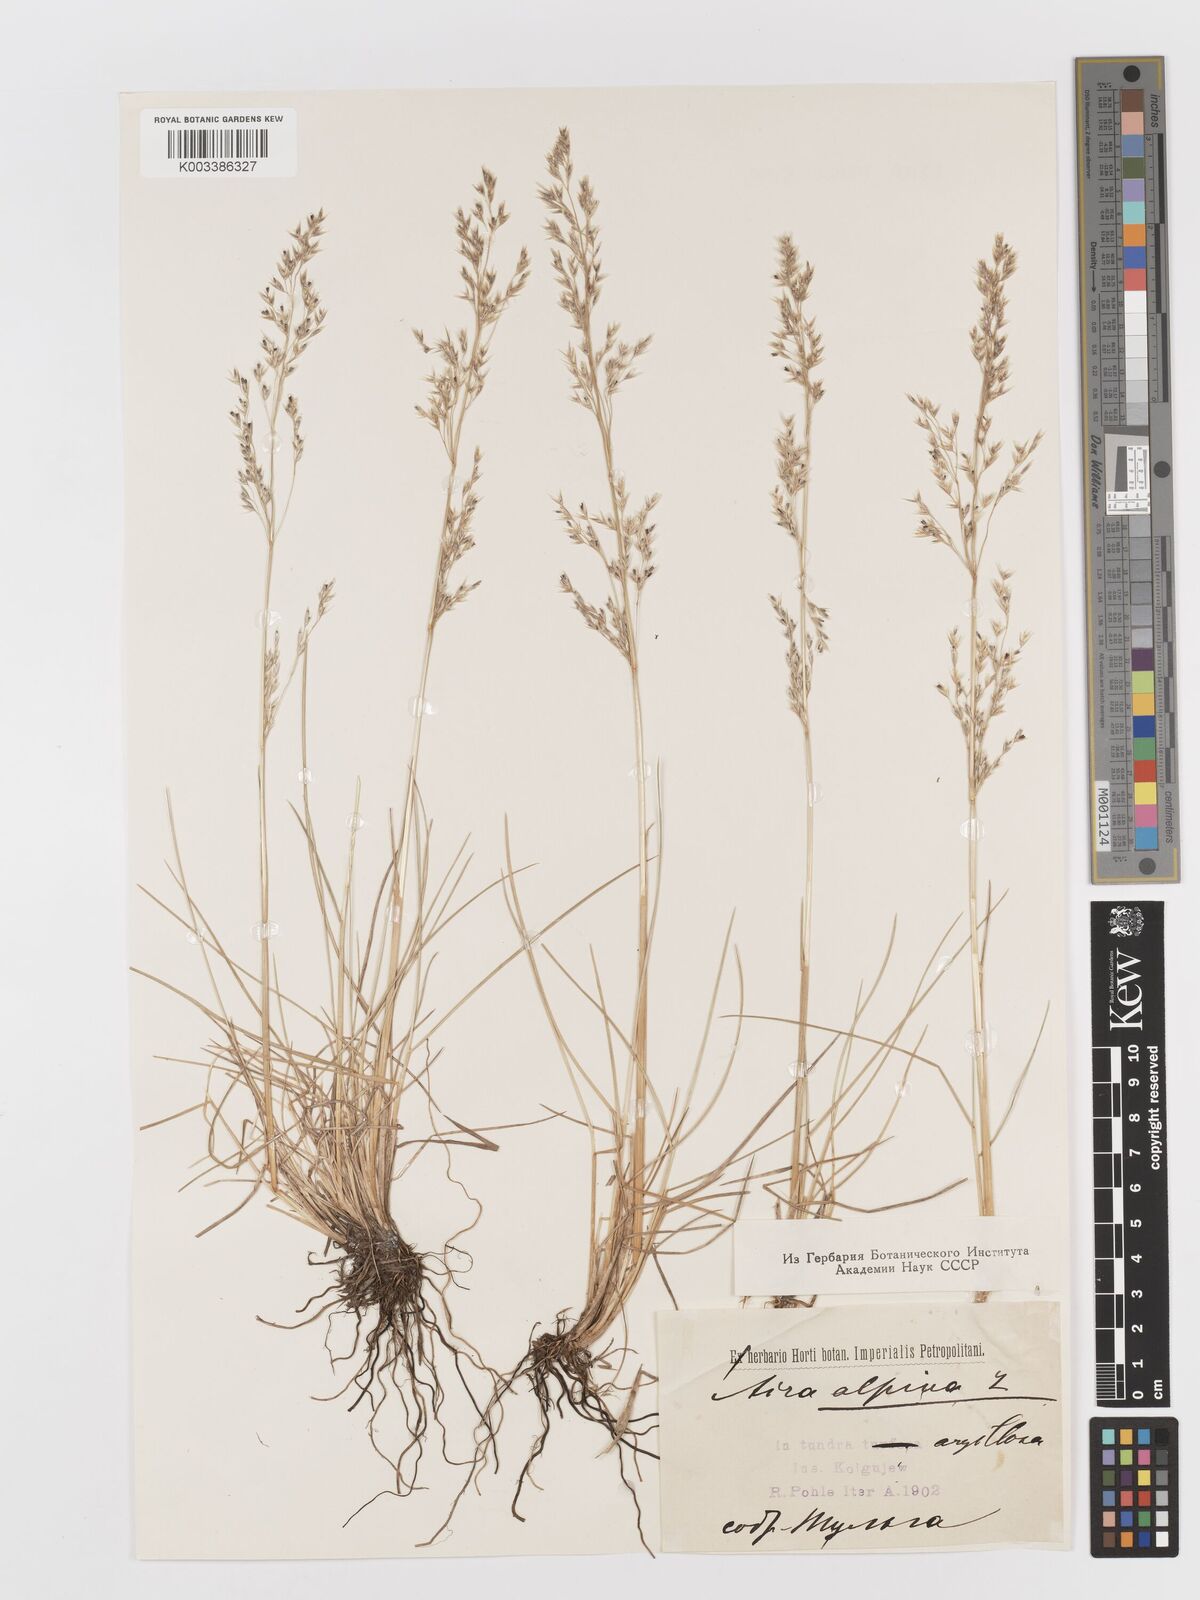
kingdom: Plantae
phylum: Tracheophyta
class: Liliopsida
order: Poales
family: Poaceae
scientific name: Poaceae
